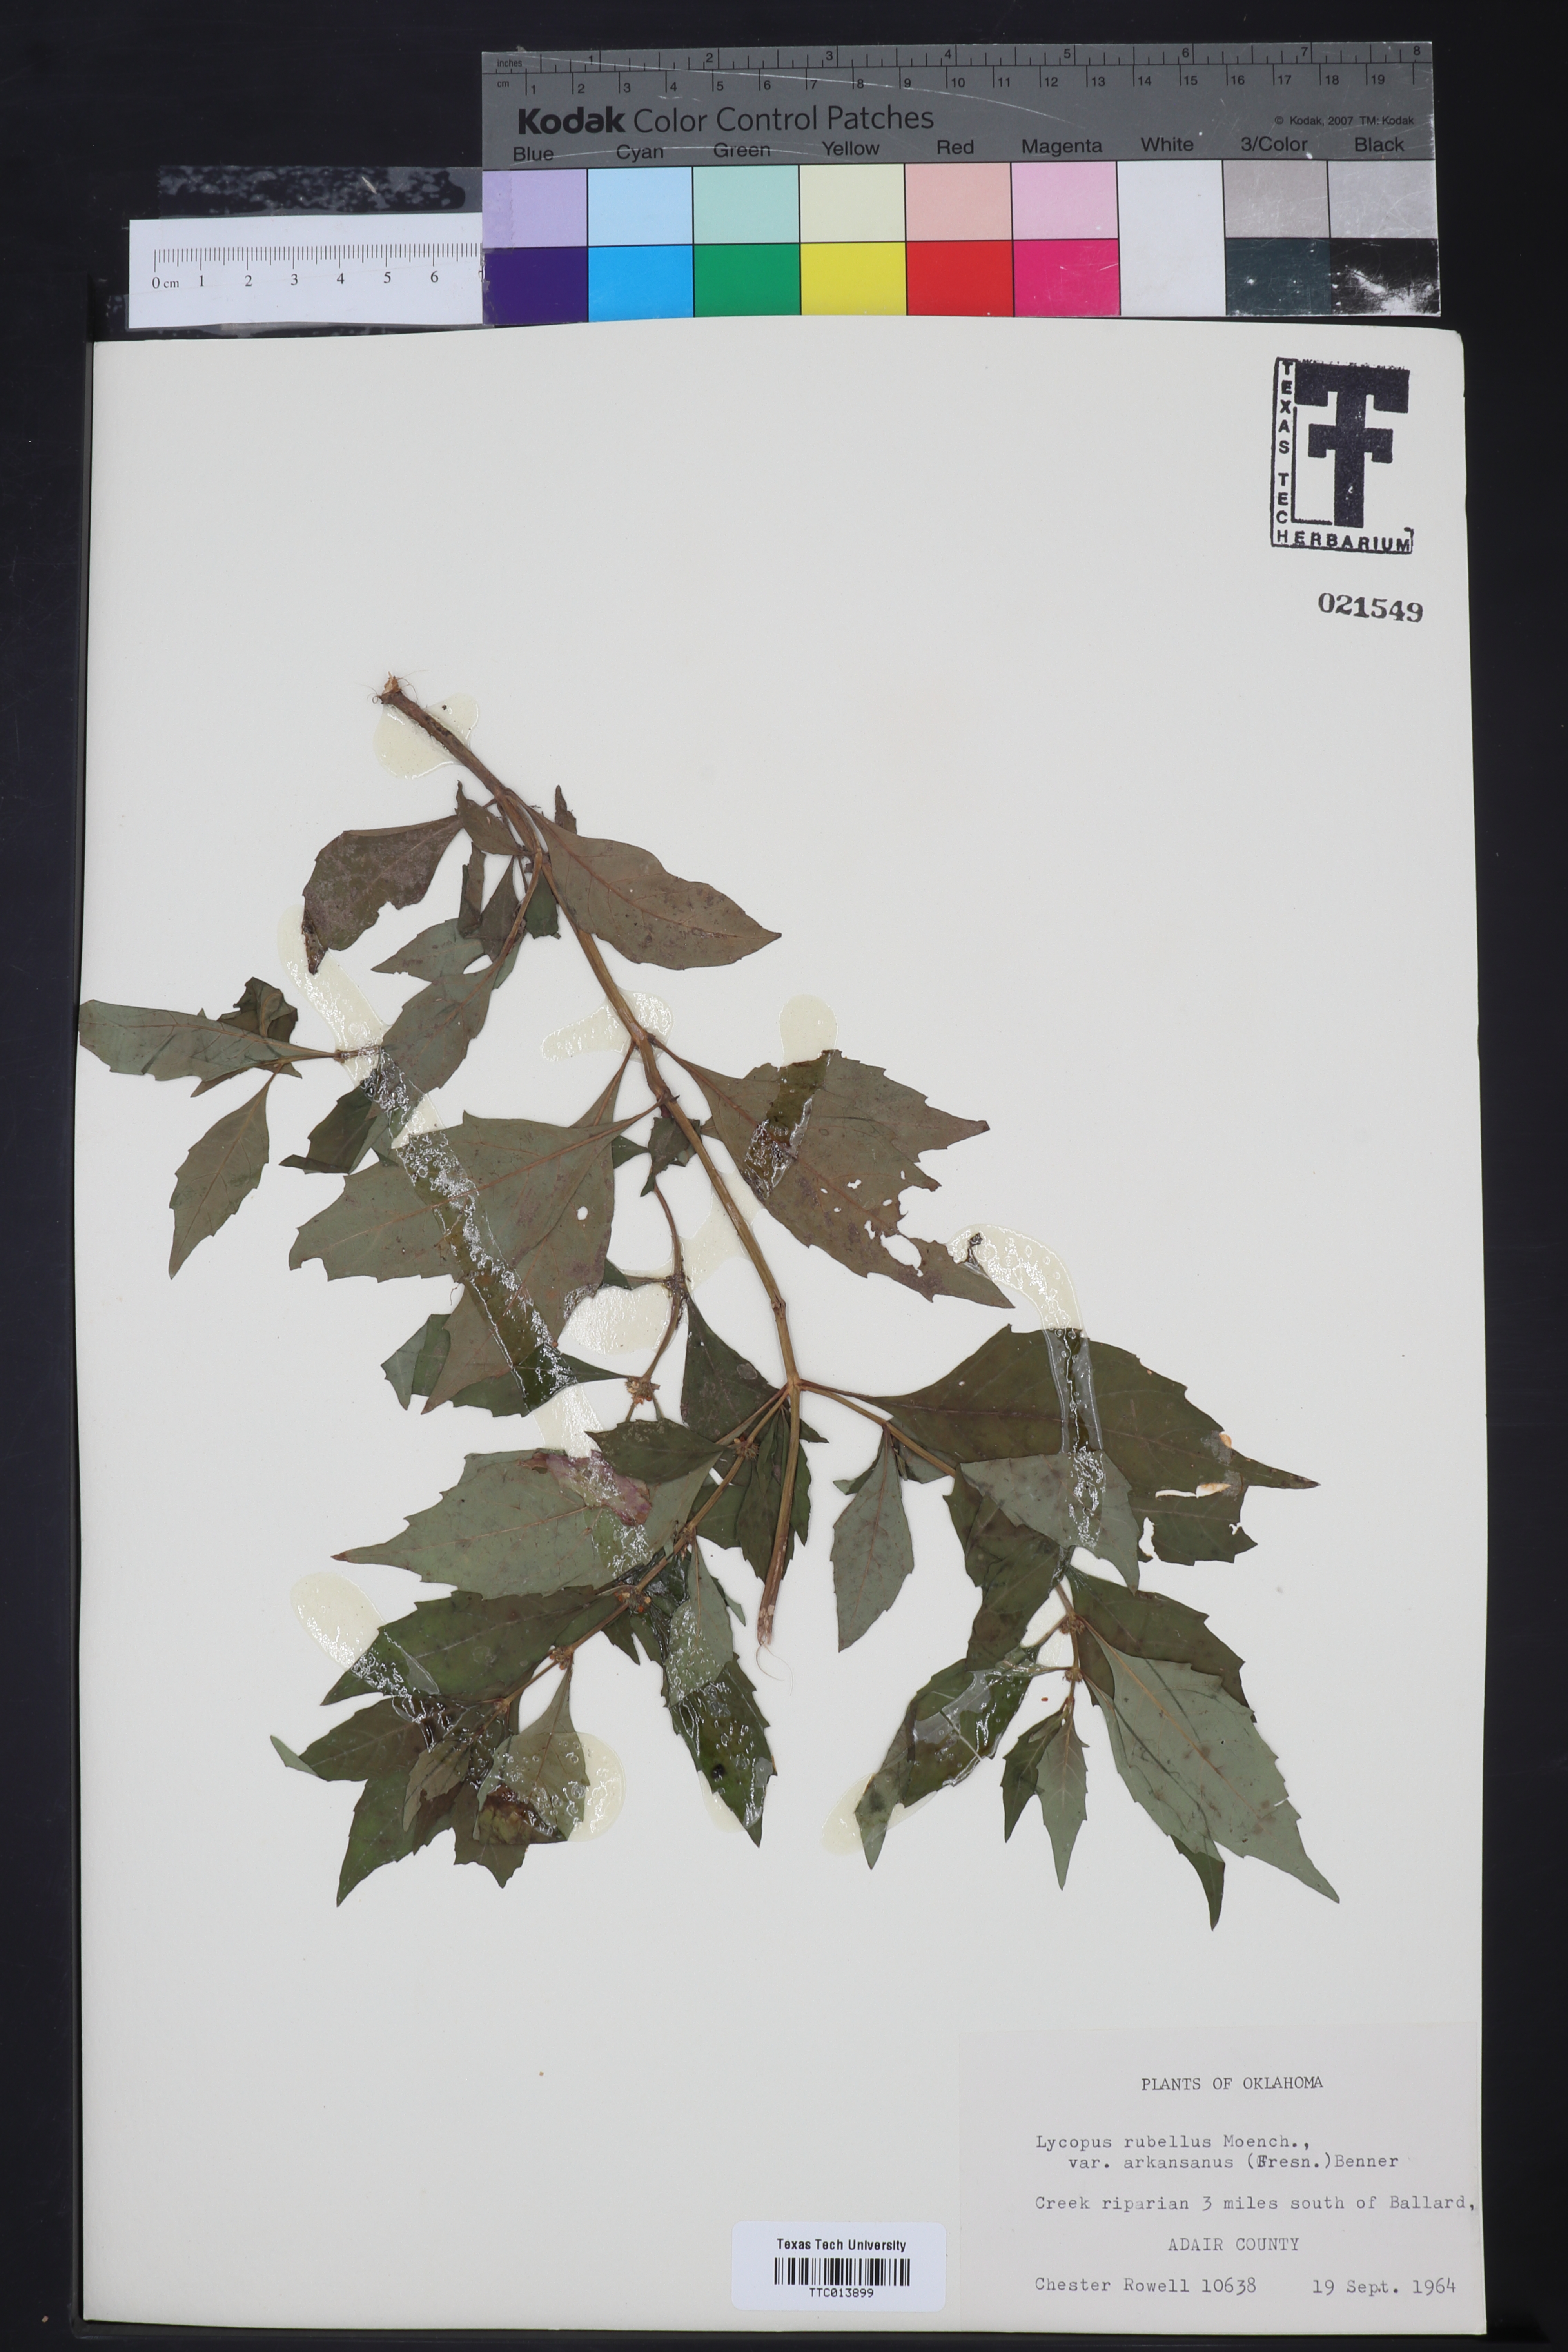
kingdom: Plantae
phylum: Tracheophyta
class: Magnoliopsida
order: Lamiales
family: Lamiaceae
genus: Lycopus
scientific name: Lycopus rubellus
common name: Stalked bugleweed
